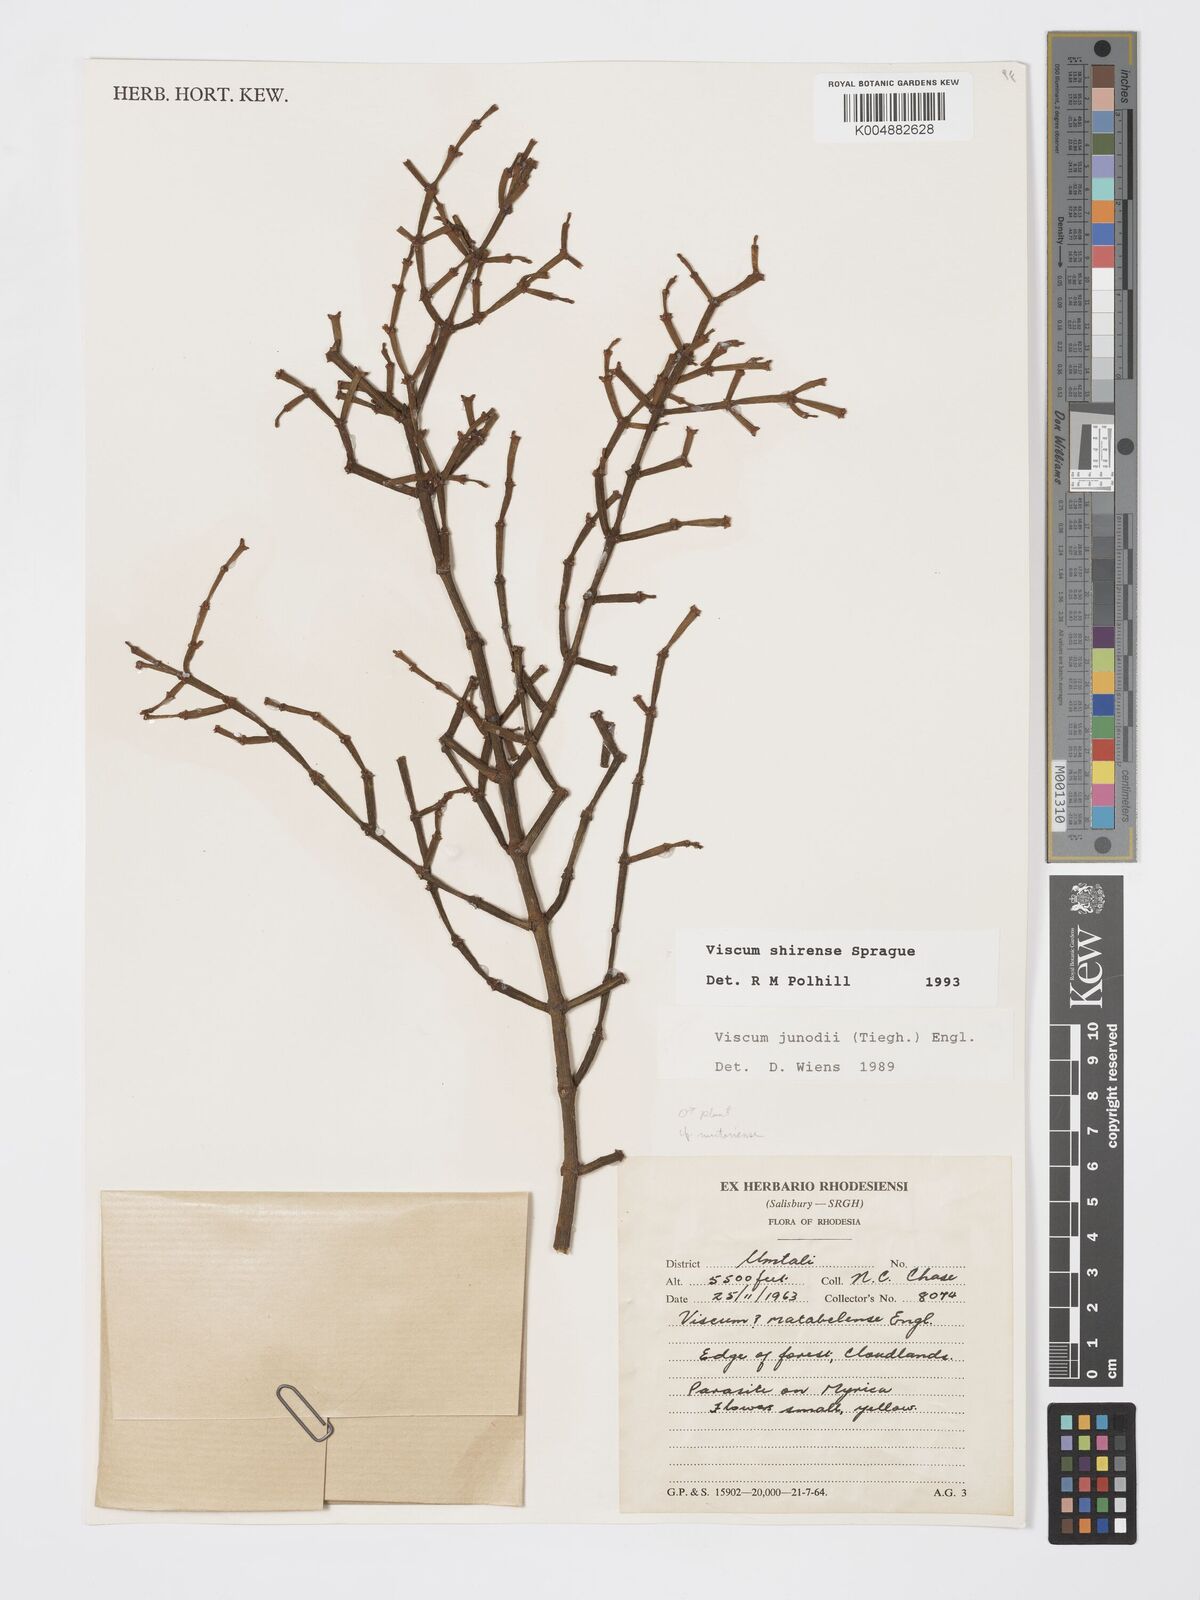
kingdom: Plantae
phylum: Tracheophyta
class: Magnoliopsida
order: Santalales
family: Viscaceae
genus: Viscum
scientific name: Viscum junodii
